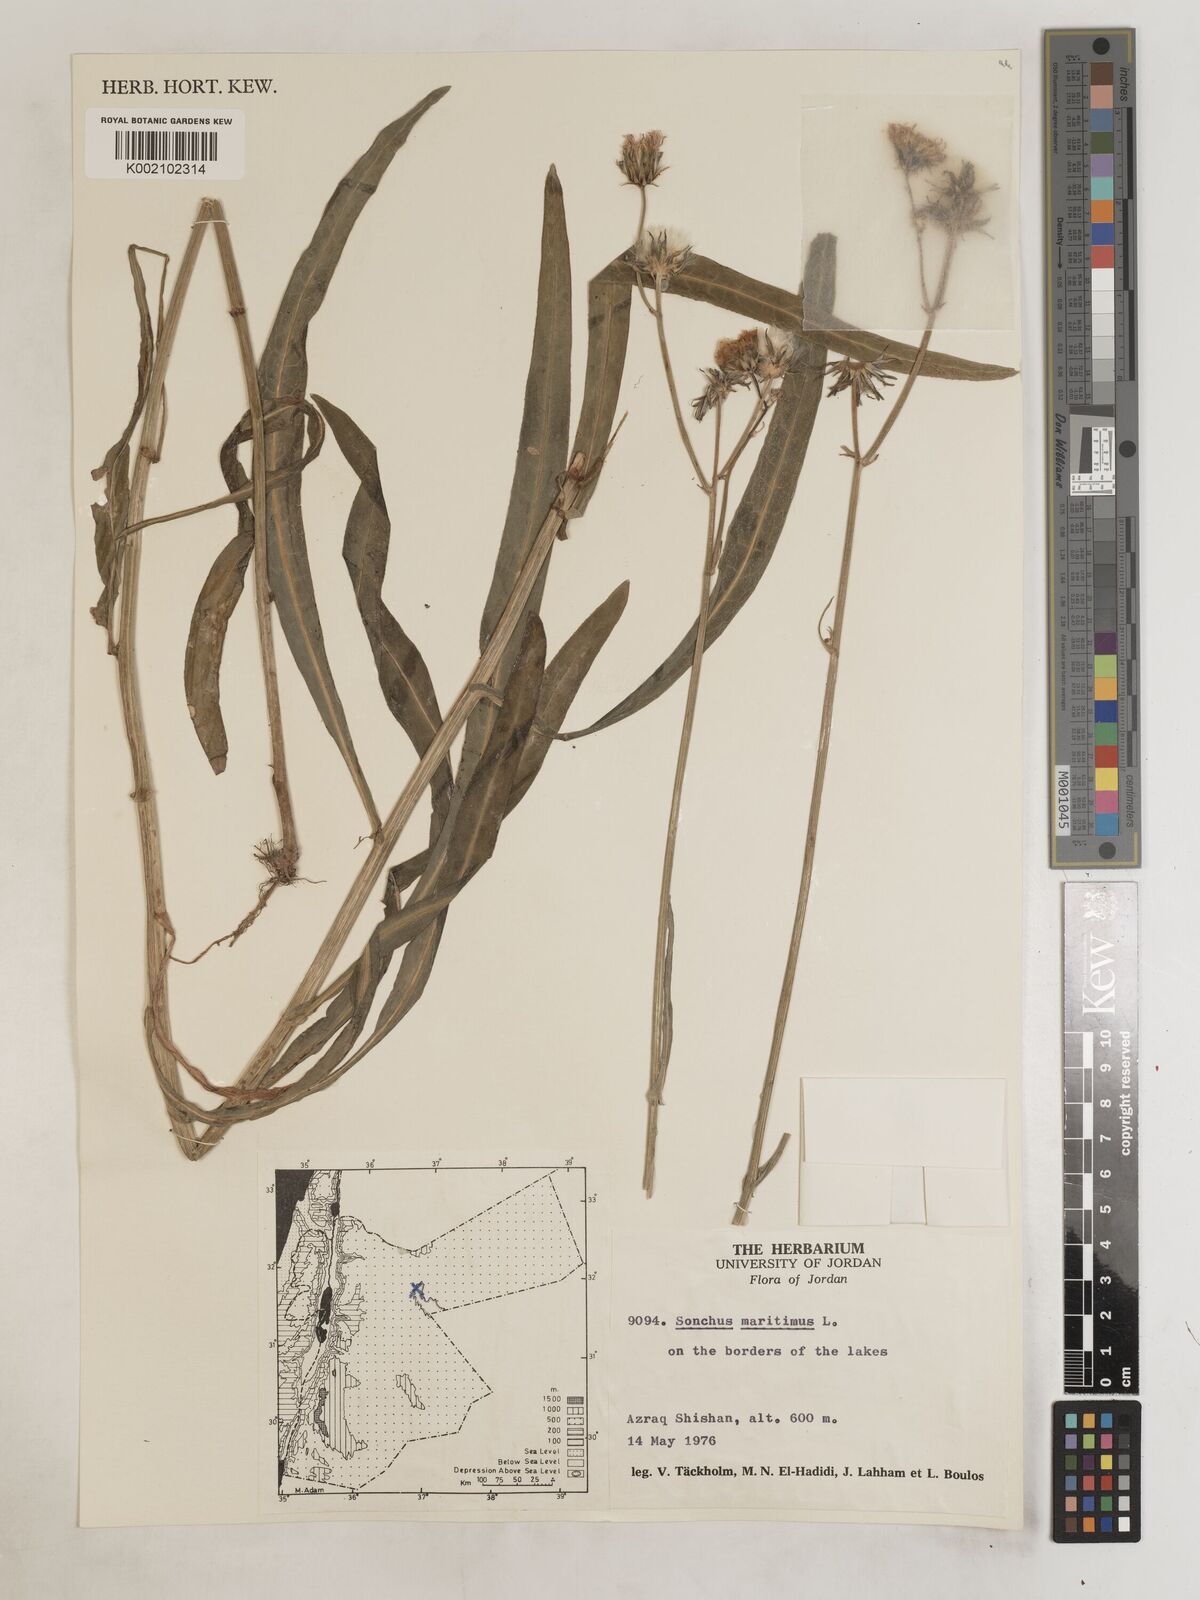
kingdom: Plantae
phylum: Tracheophyta
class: Magnoliopsida
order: Asterales
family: Asteraceae
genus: Sonchus
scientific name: Sonchus maritimus
